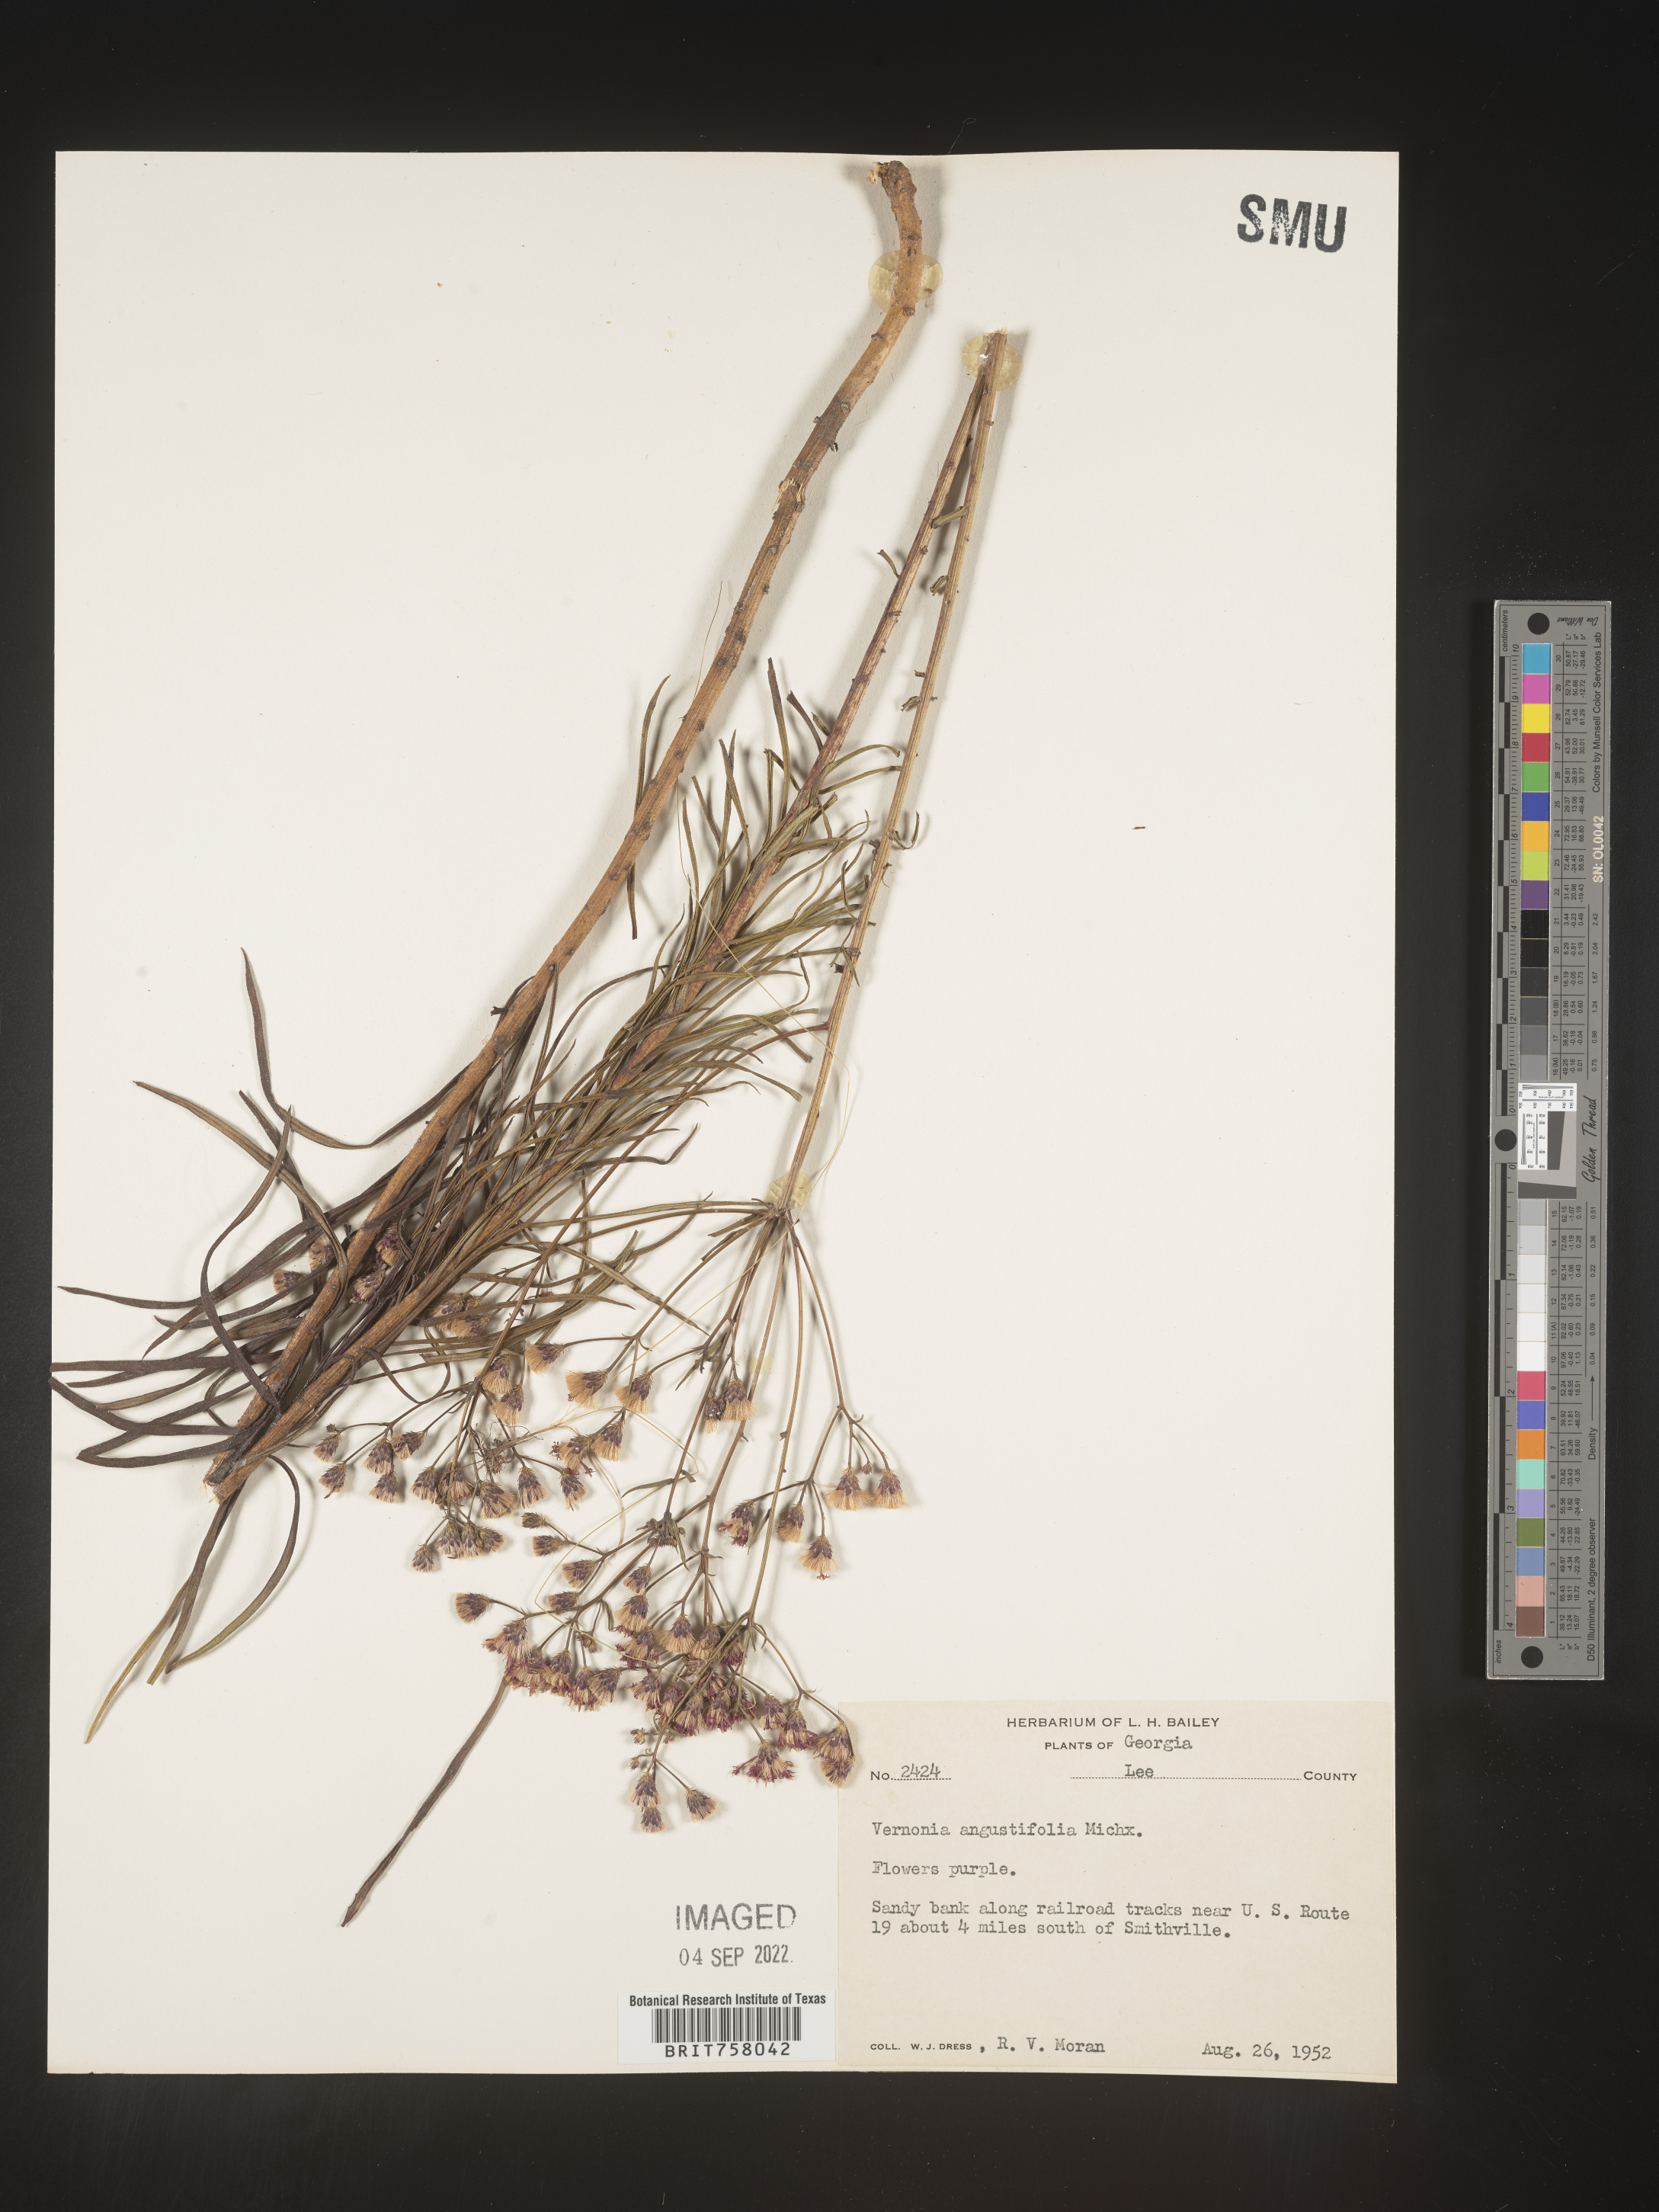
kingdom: Plantae
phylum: Tracheophyta
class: Magnoliopsida
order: Asterales
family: Asteraceae
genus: Vernonia
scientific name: Vernonia angustifolia
